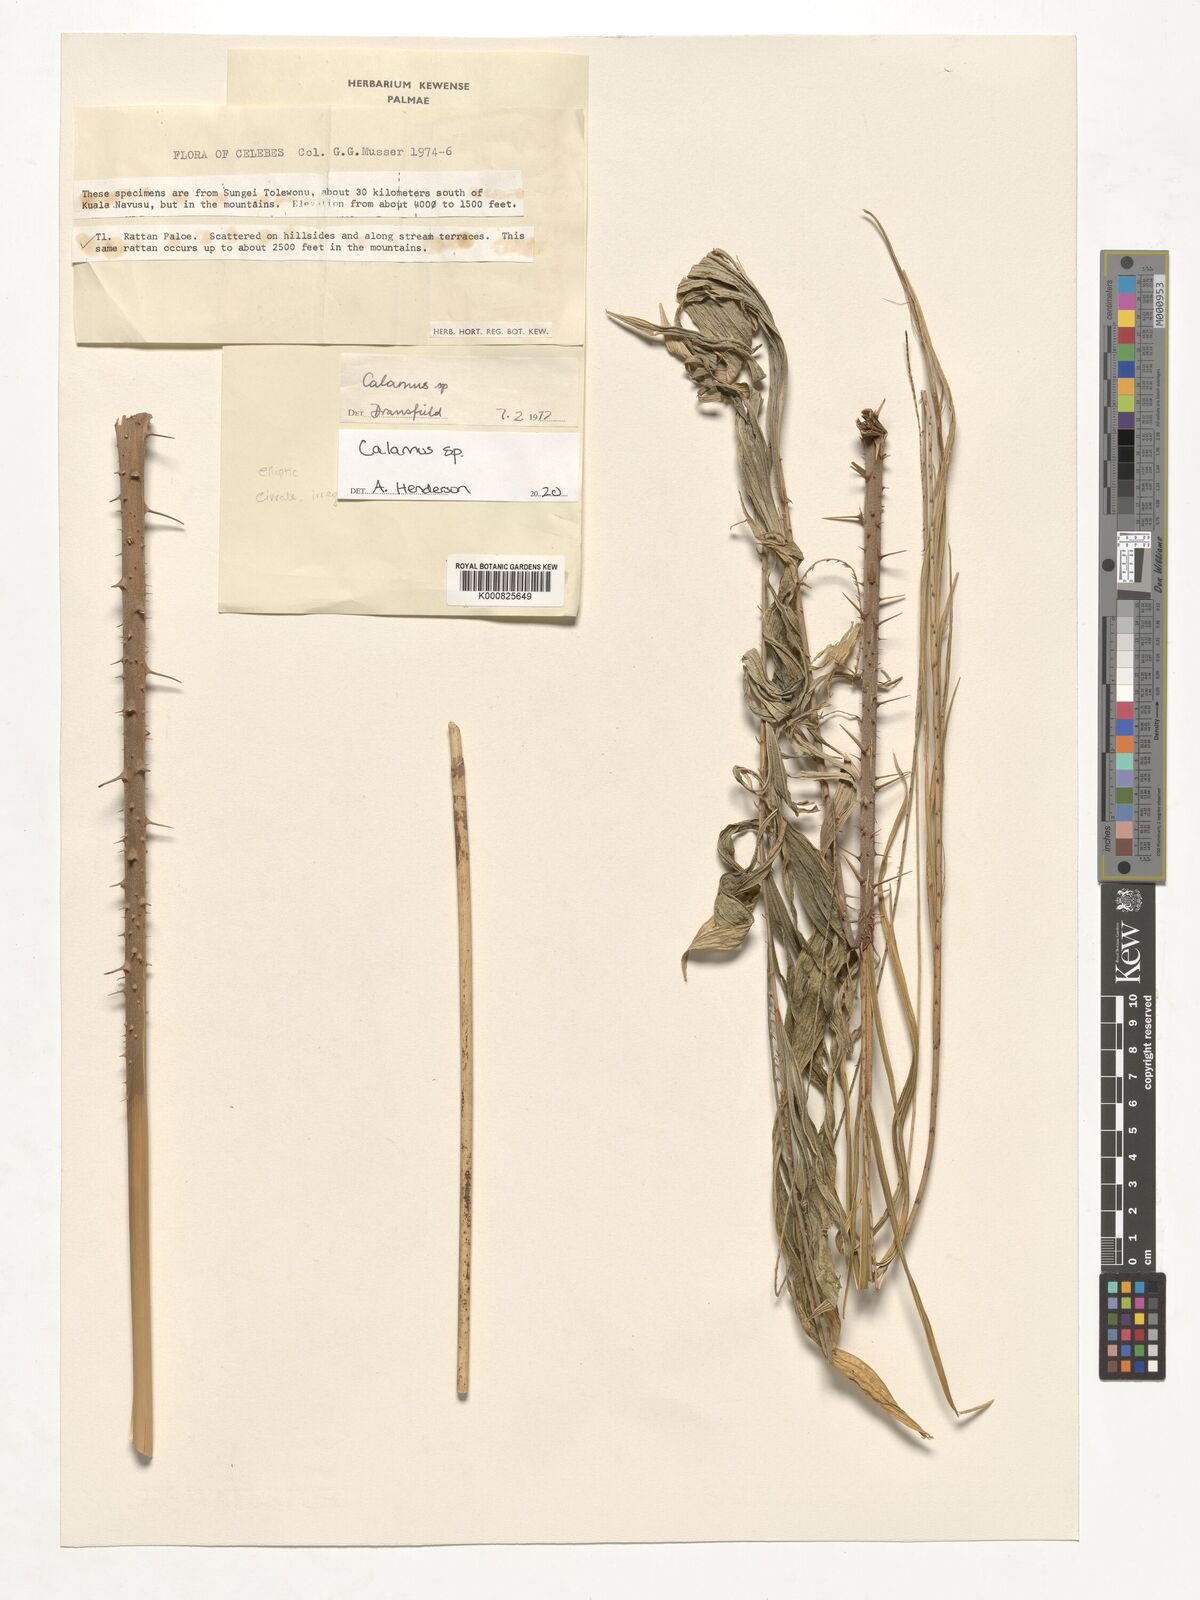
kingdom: Plantae
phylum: Tracheophyta
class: Liliopsida
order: Arecales
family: Arecaceae
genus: Calamus
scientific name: Calamus
